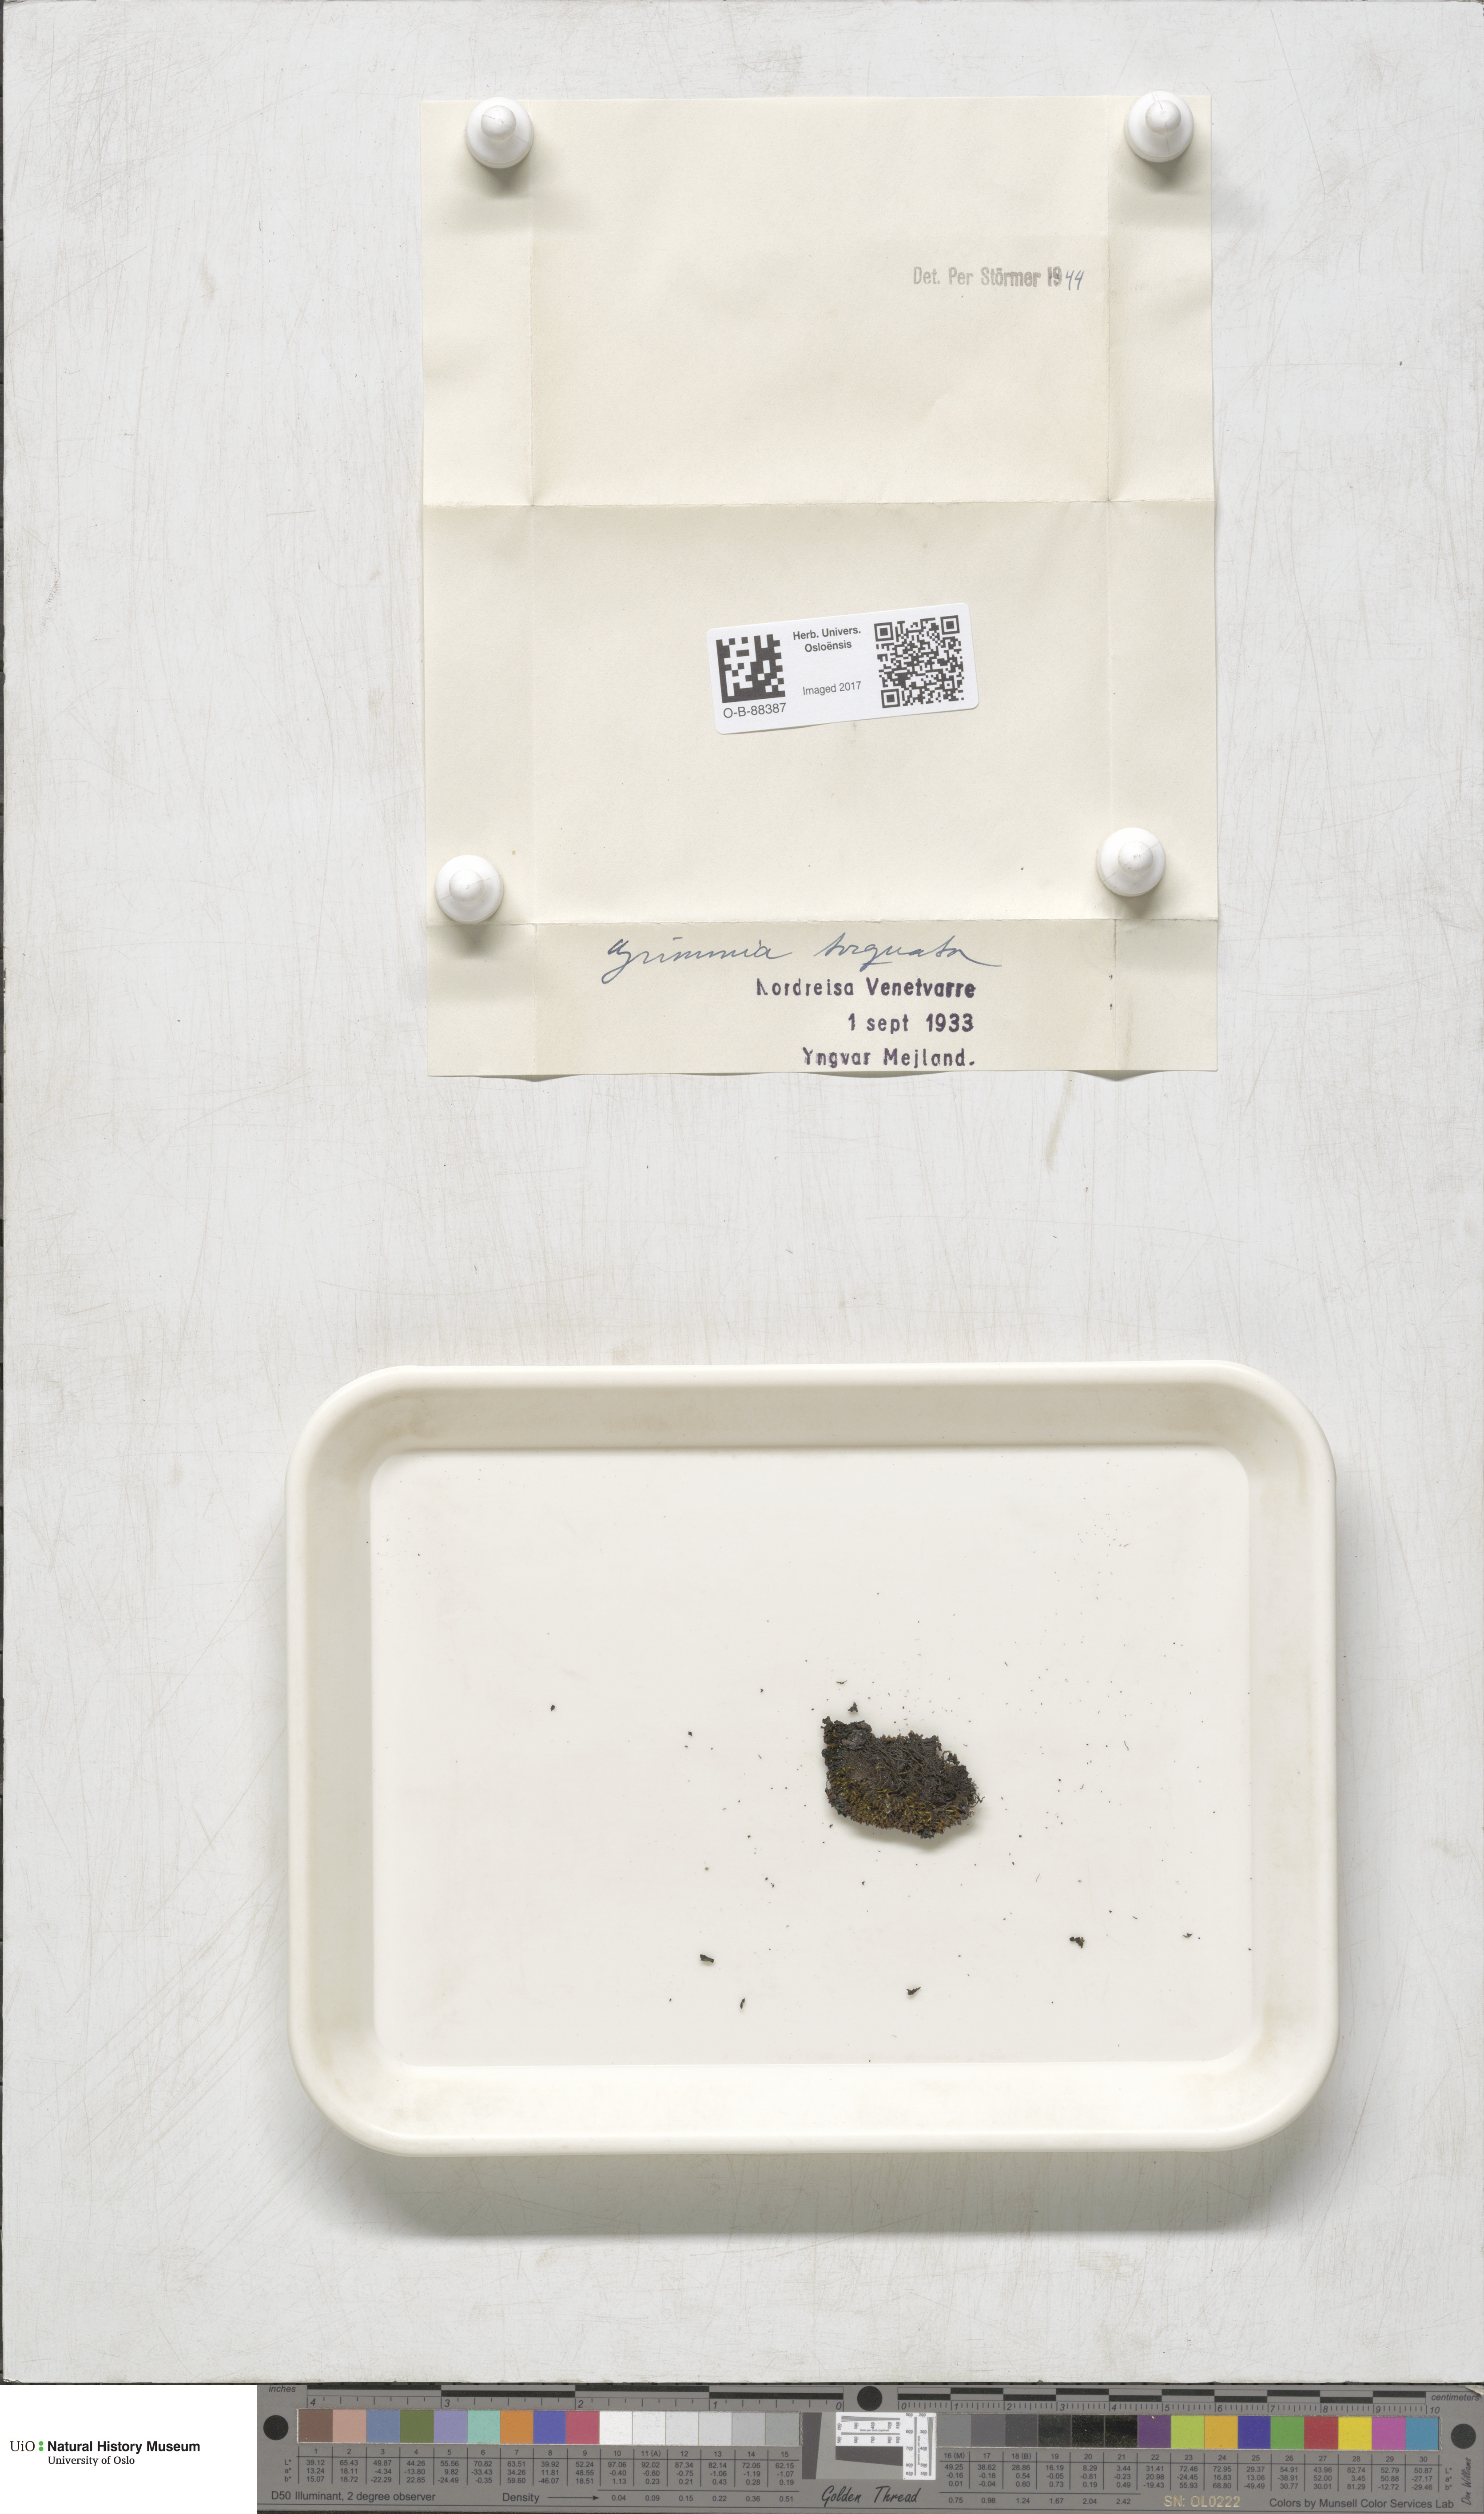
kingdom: Plantae
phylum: Bryophyta
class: Bryopsida
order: Grimmiales
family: Grimmiaceae
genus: Grimmia
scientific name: Grimmia torquata
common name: Twisted grimmia
